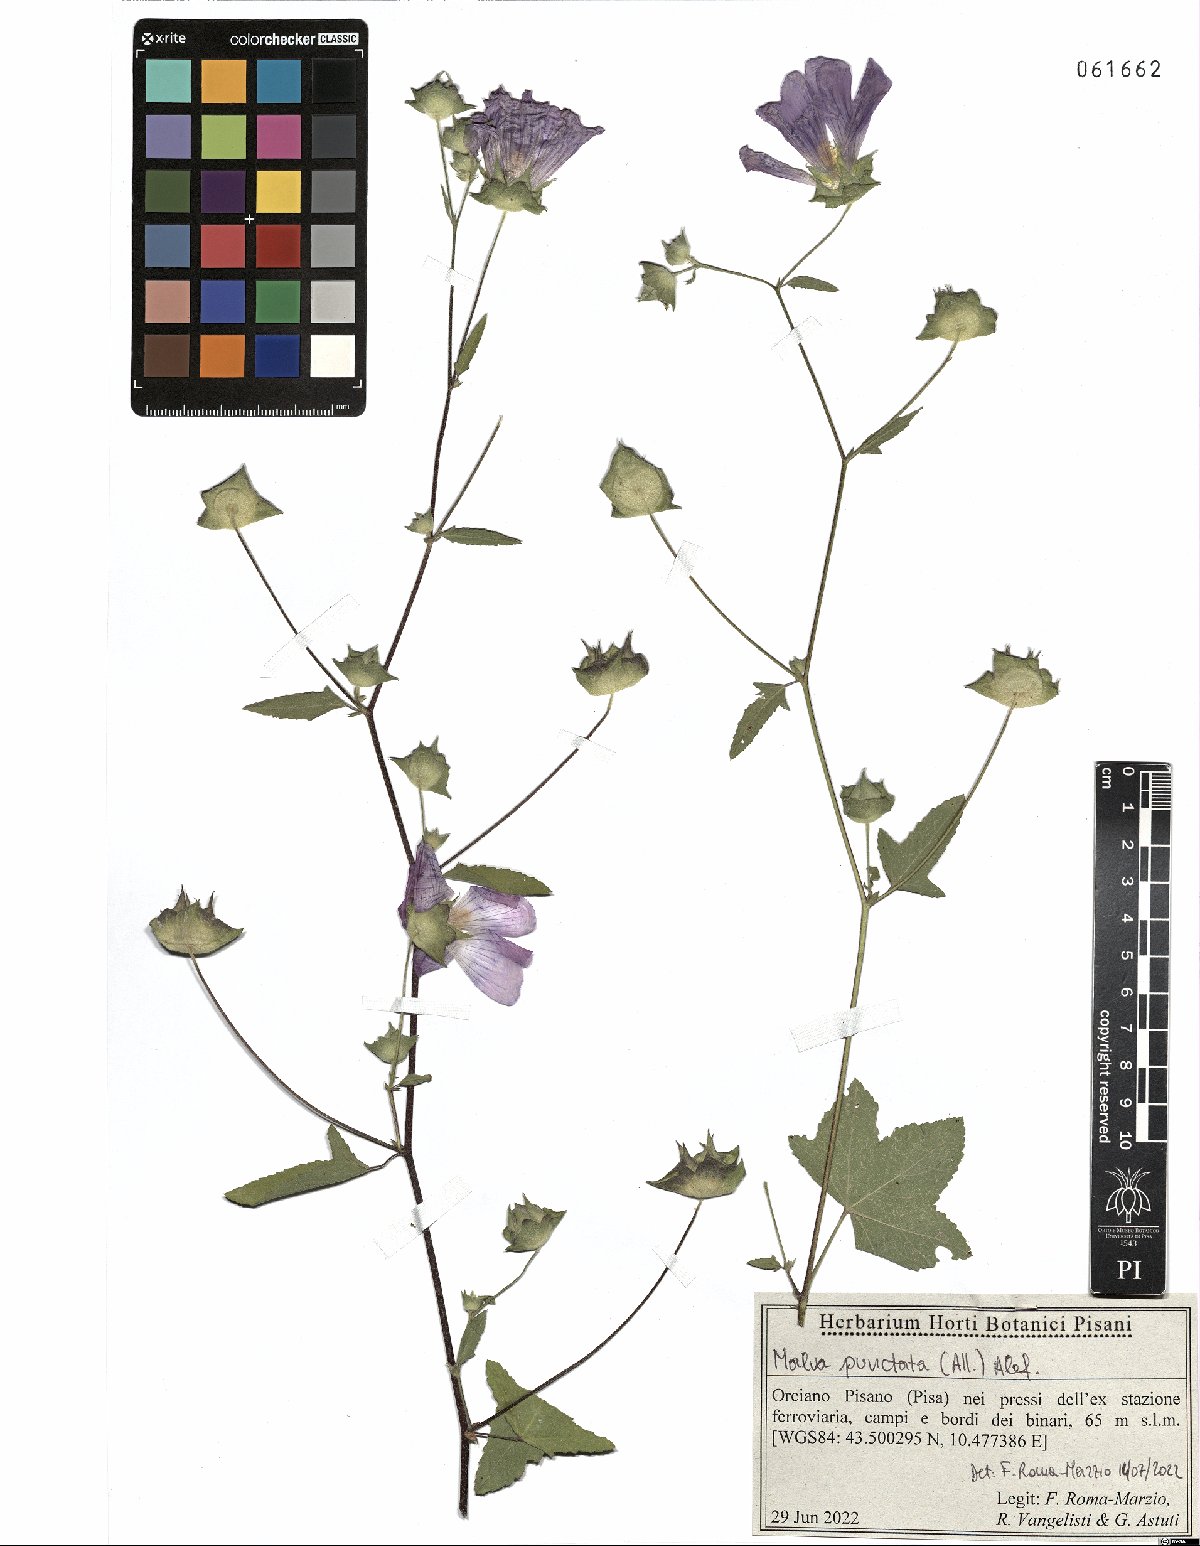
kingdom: Plantae
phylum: Tracheophyta
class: Magnoliopsida
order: Malvales
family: Malvaceae
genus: Malva
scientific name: Malva punctata
